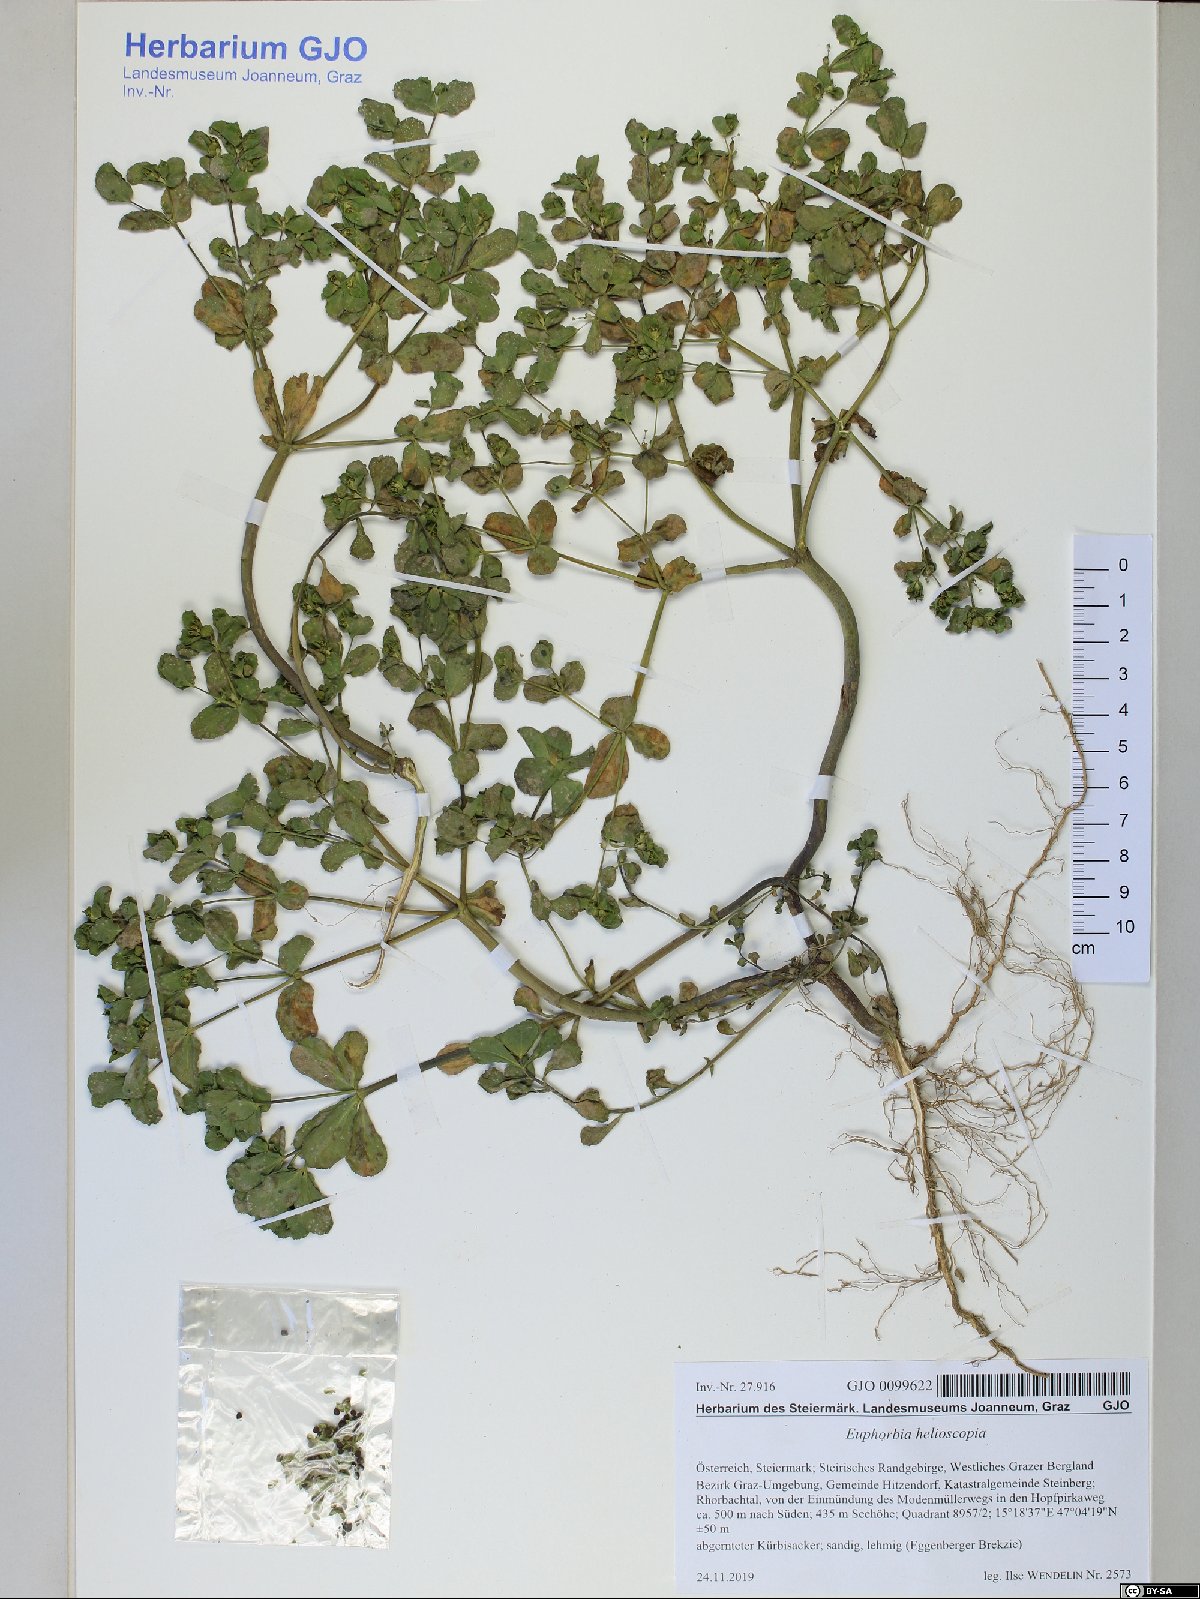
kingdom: Plantae
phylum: Tracheophyta
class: Magnoliopsida
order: Malpighiales
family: Euphorbiaceae
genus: Euphorbia
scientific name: Euphorbia helioscopia
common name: Sun spurge
